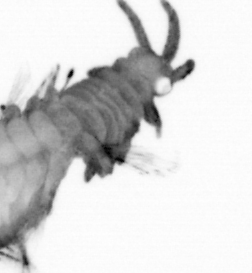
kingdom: Animalia
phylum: Annelida
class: Polychaeta
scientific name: Polychaeta
